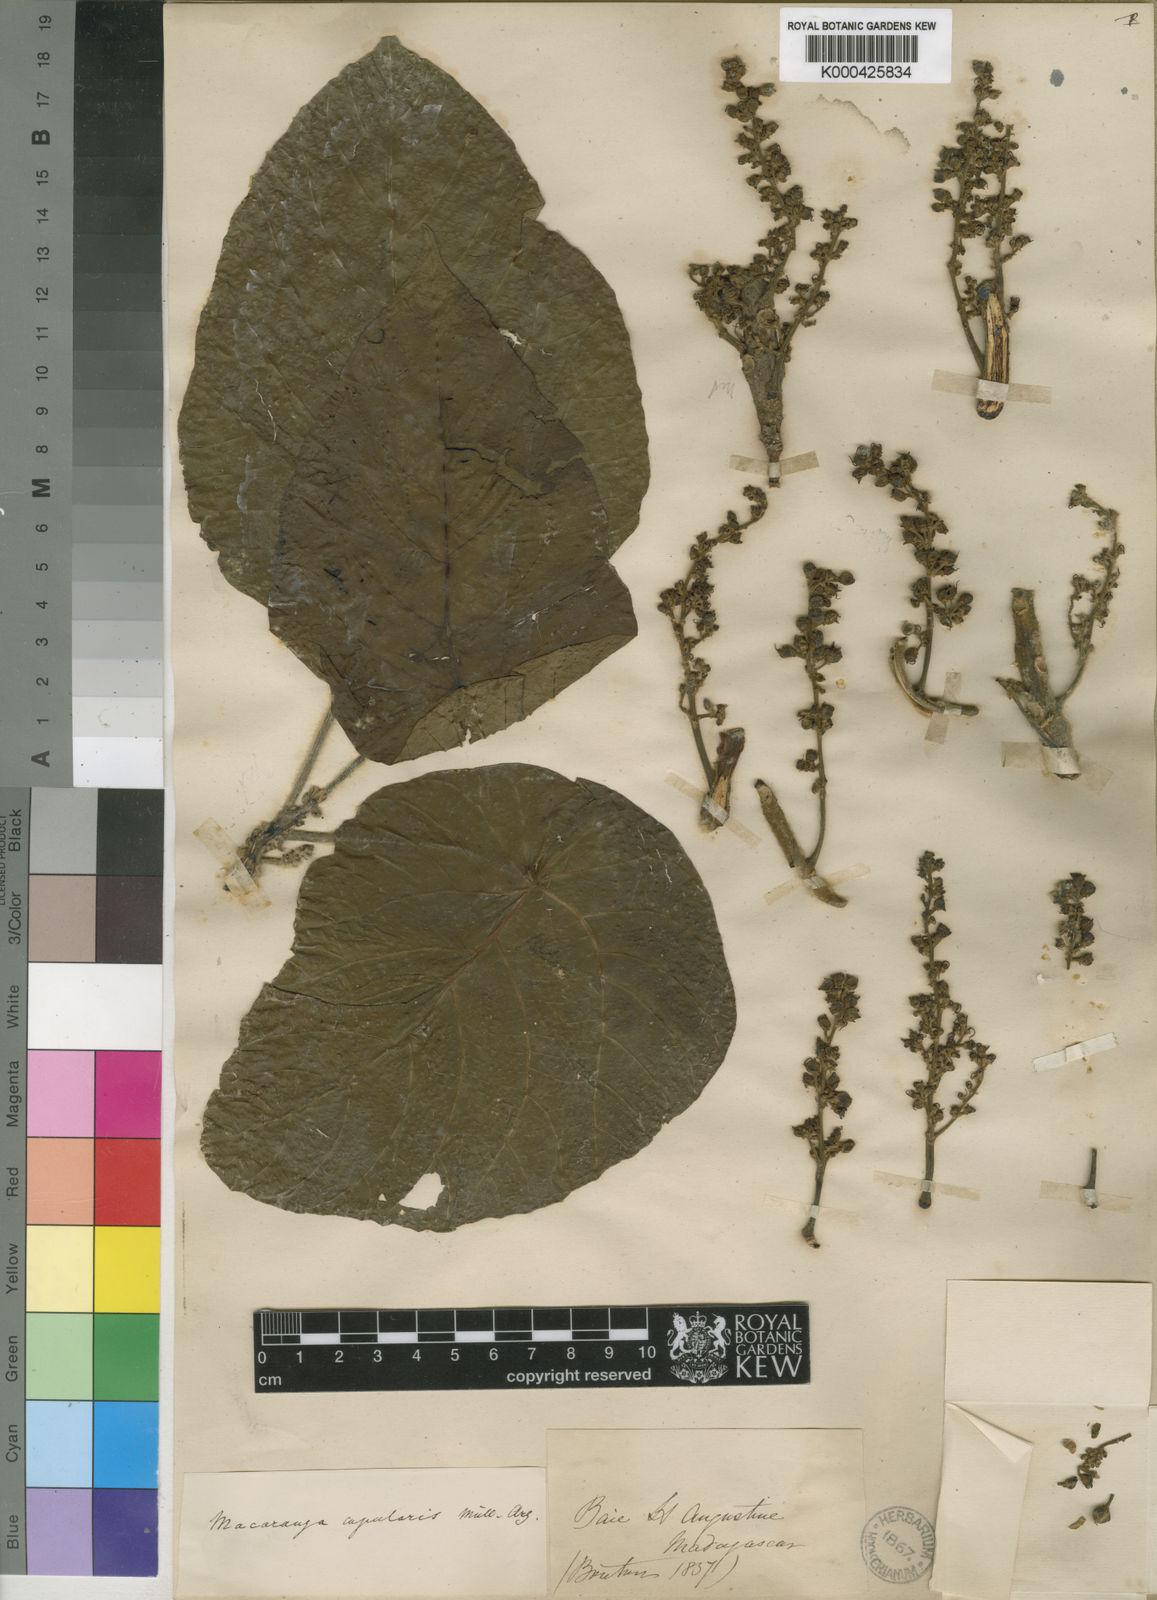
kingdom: Plantae
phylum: Tracheophyta
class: Magnoliopsida
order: Malpighiales
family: Euphorbiaceae
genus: Macaranga
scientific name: Macaranga
